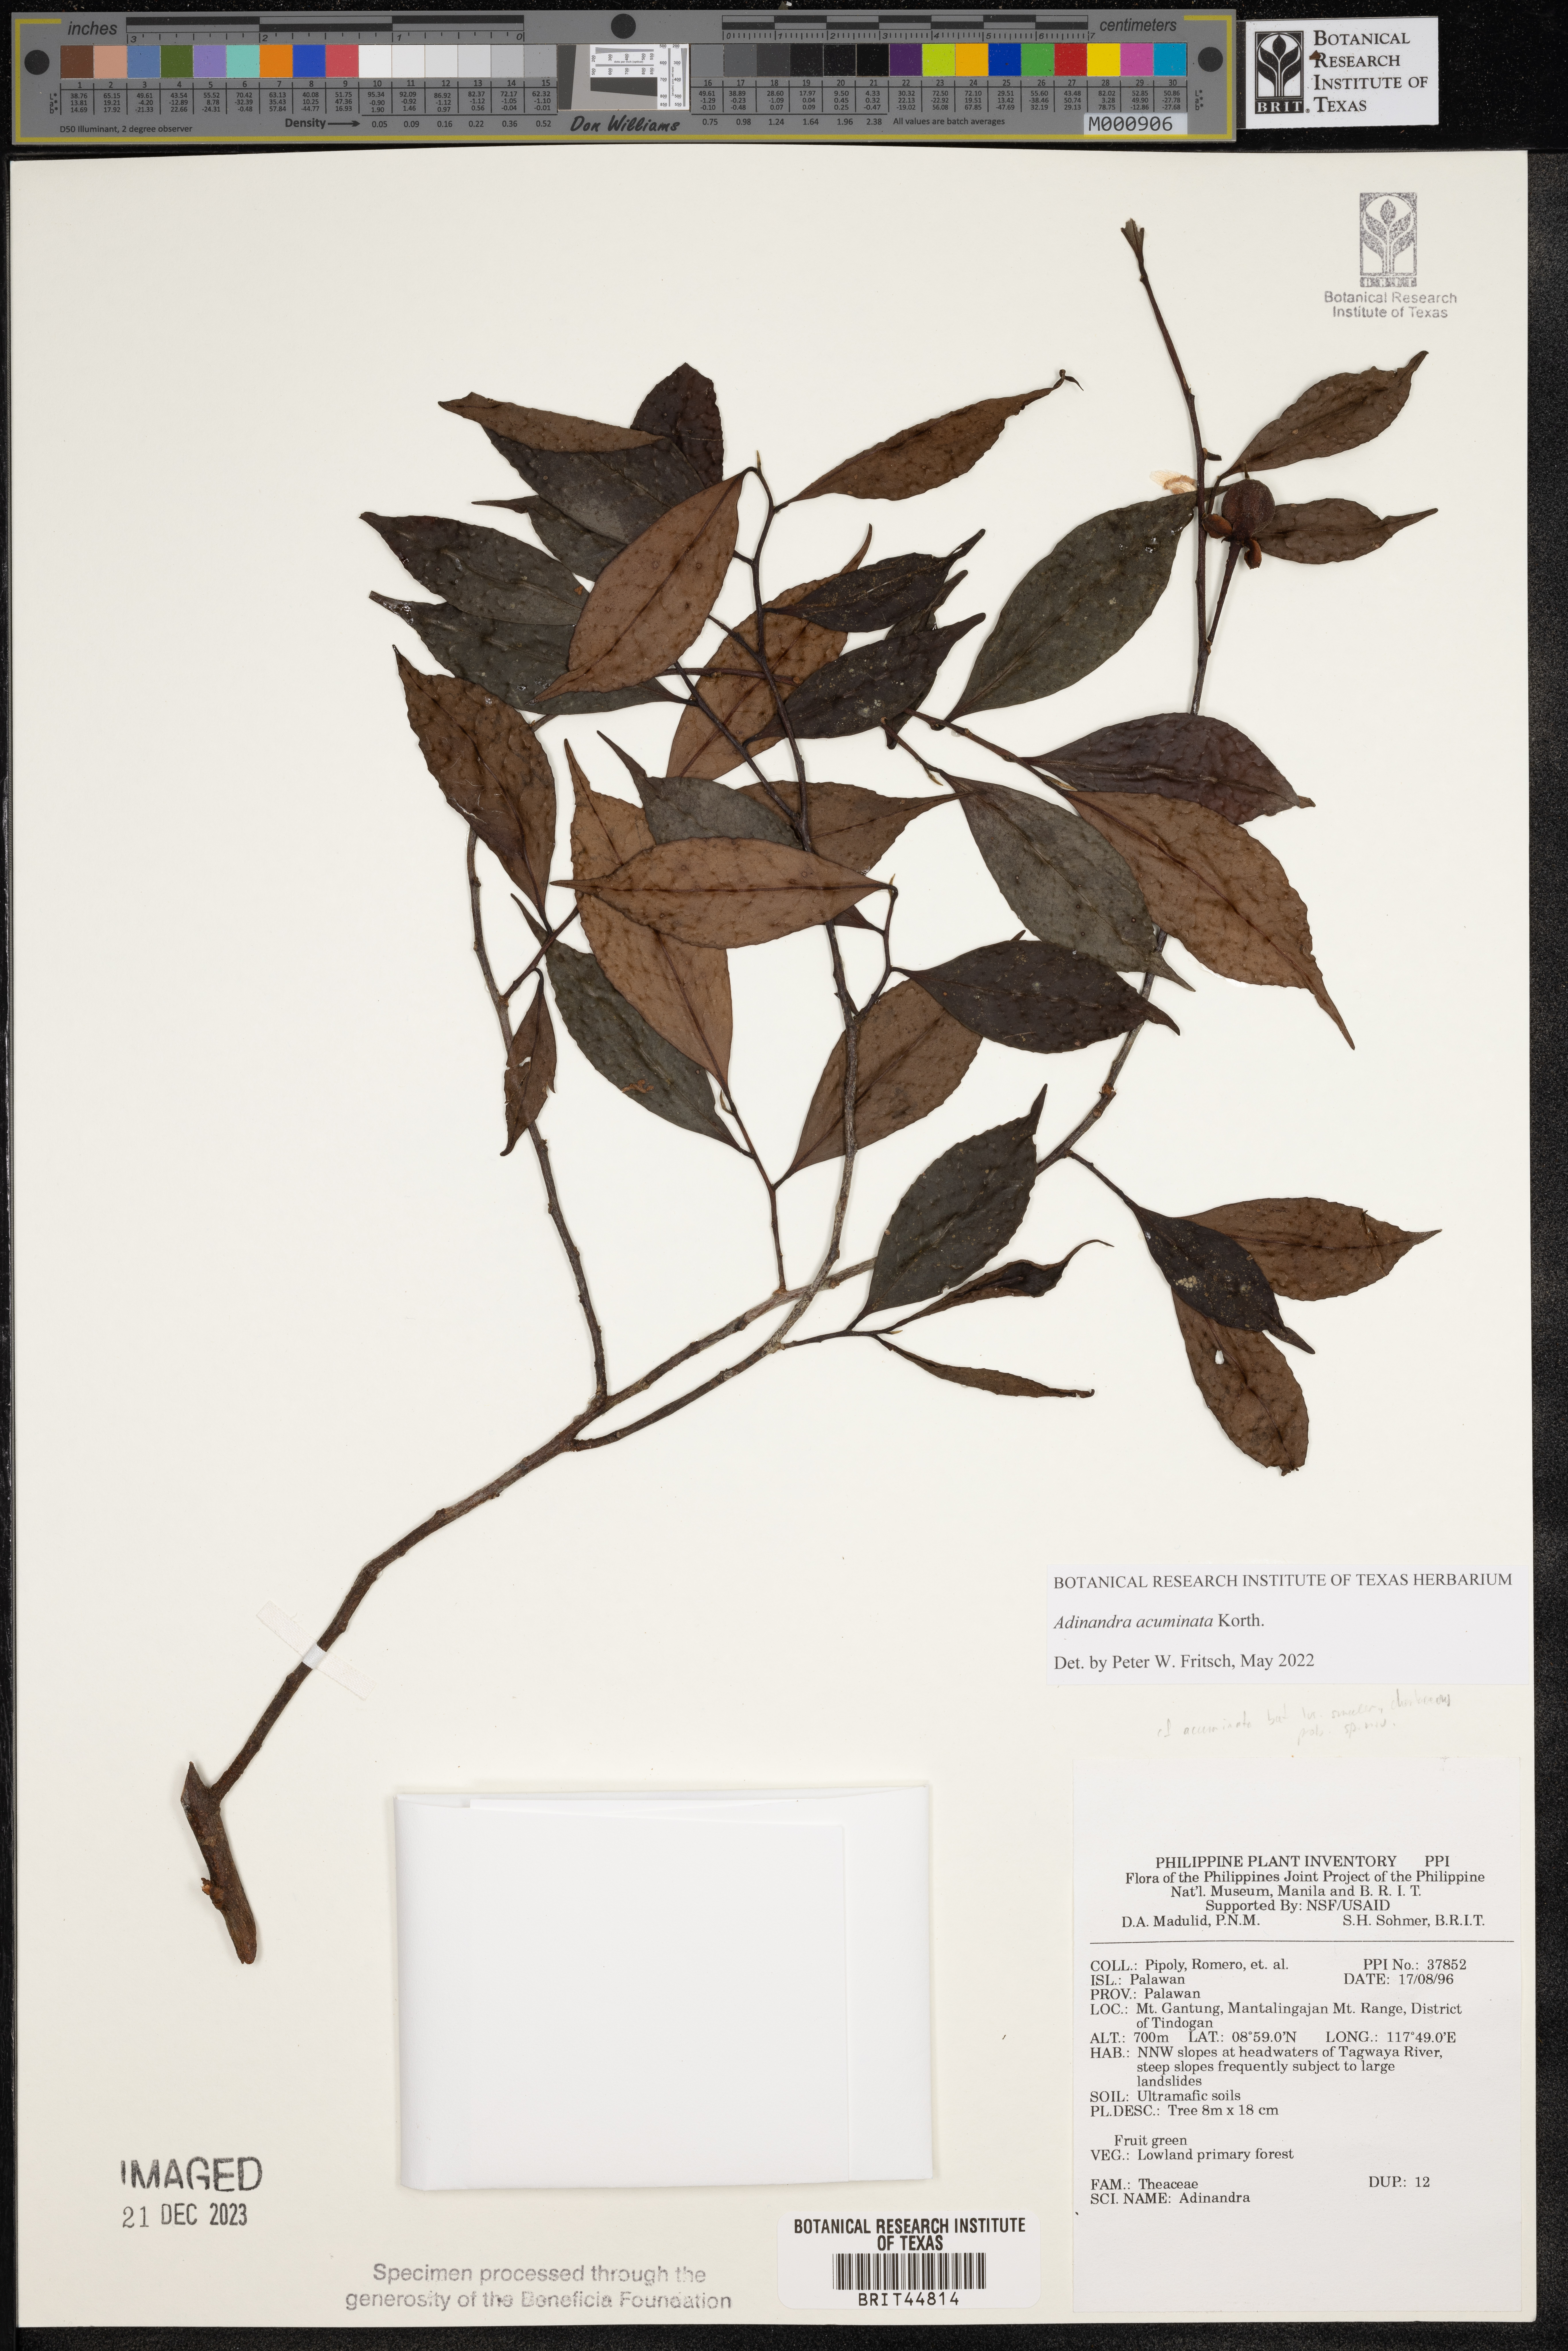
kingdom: Plantae
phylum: Tracheophyta
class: Magnoliopsida
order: Ericales
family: Pentaphylacaceae
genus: Adinandra
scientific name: Adinandra
